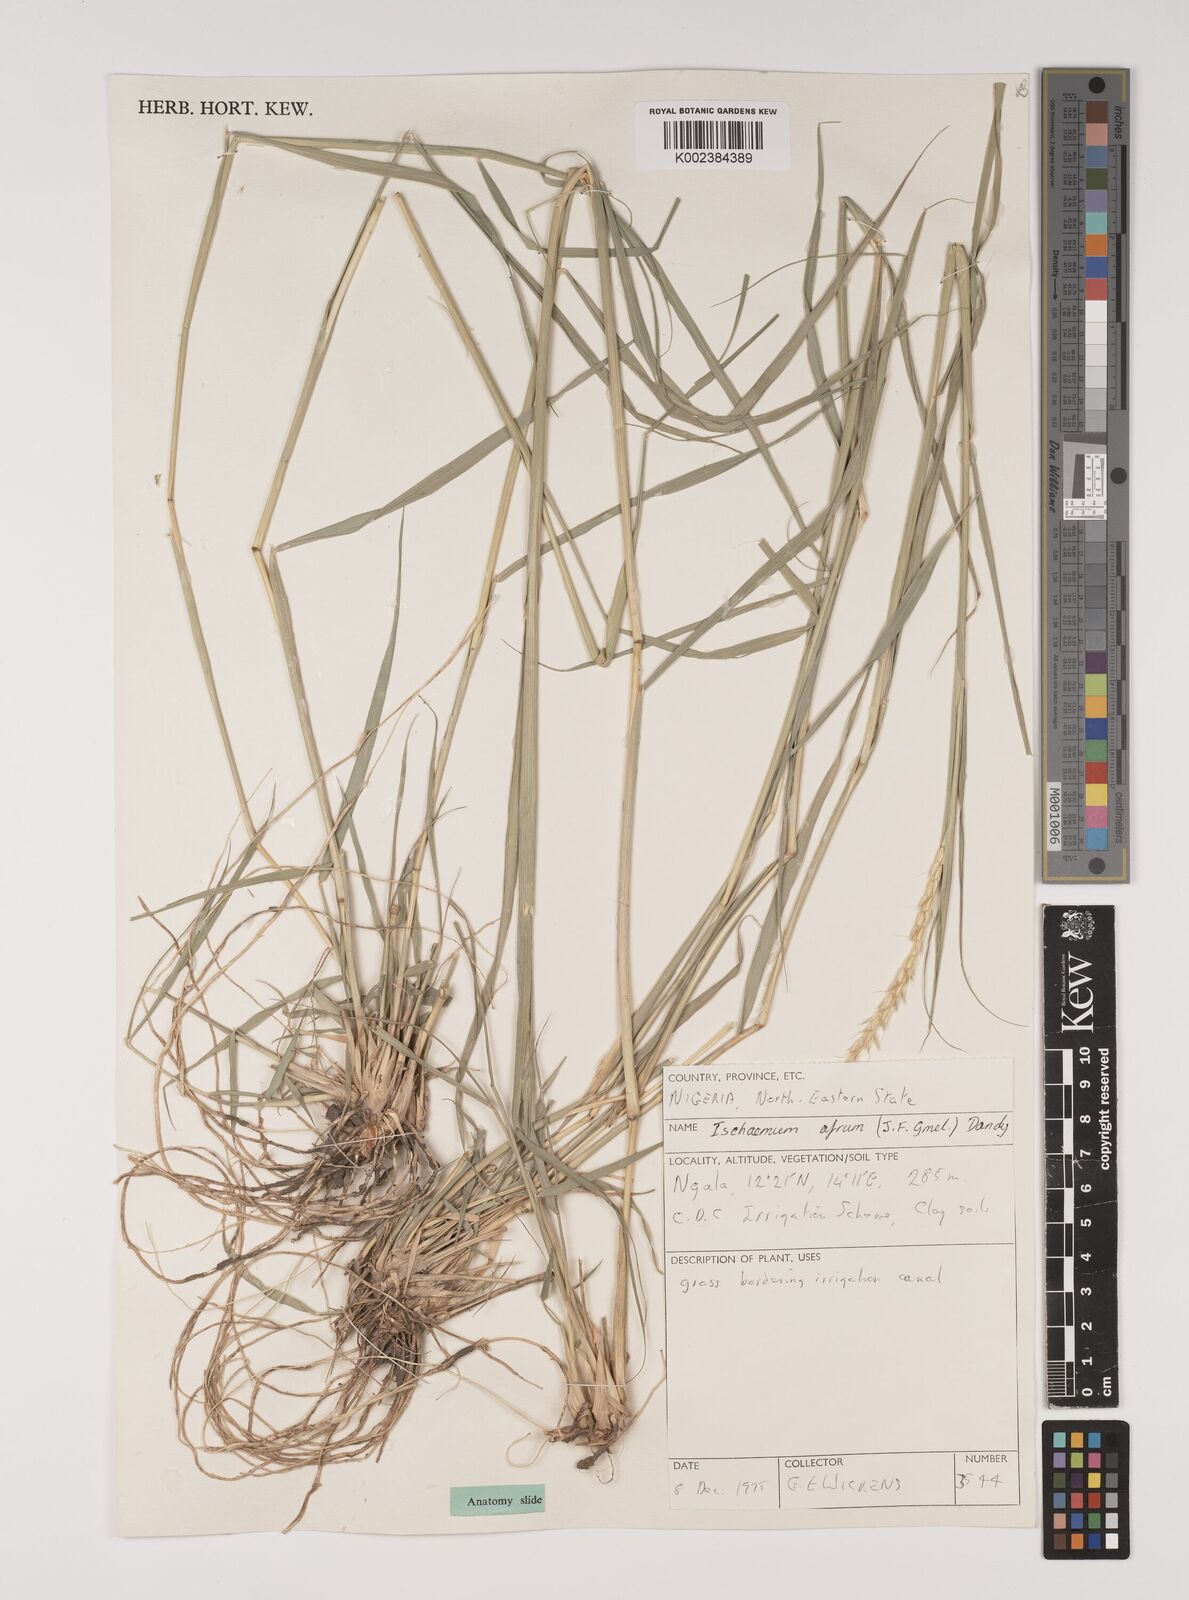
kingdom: Plantae
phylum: Tracheophyta
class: Liliopsida
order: Poales
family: Poaceae
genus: Ischaemum
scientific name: Ischaemum afrum
